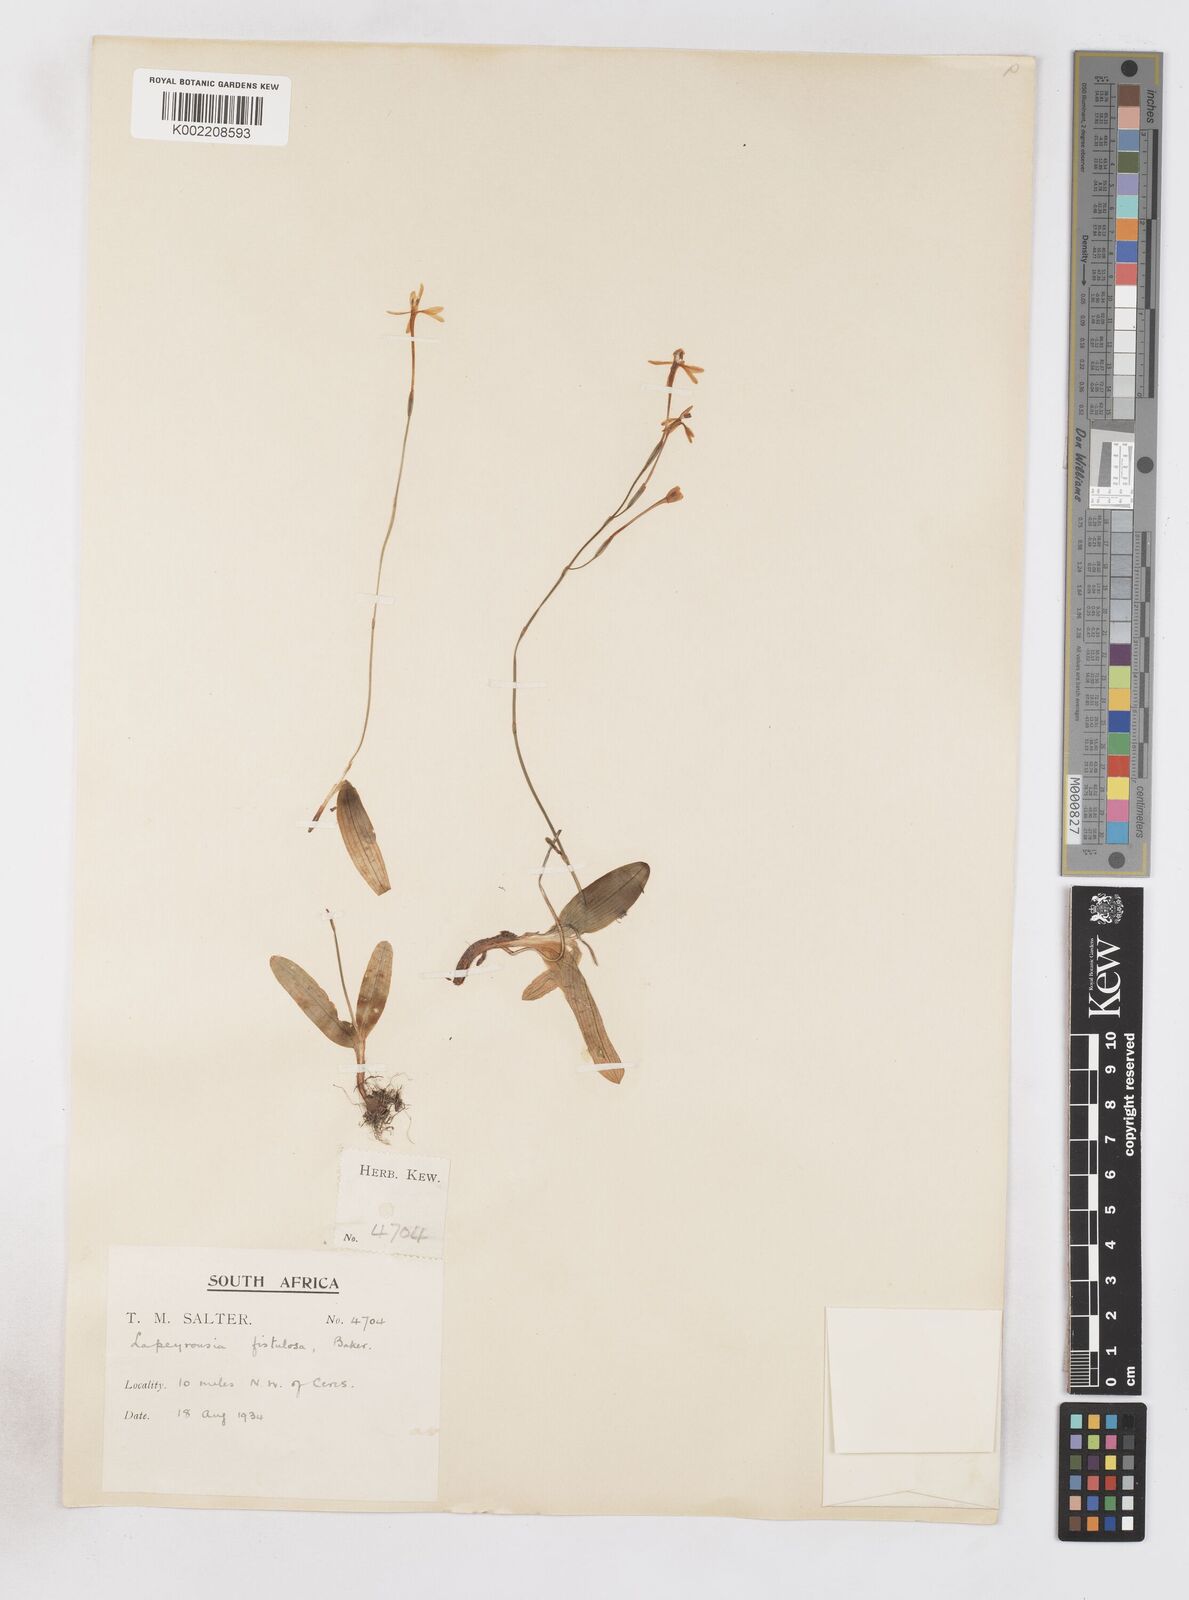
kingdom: Plantae
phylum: Tracheophyta
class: Liliopsida
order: Asparagales
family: Iridaceae
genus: Xenoscapa
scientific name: Xenoscapa fistulosa
